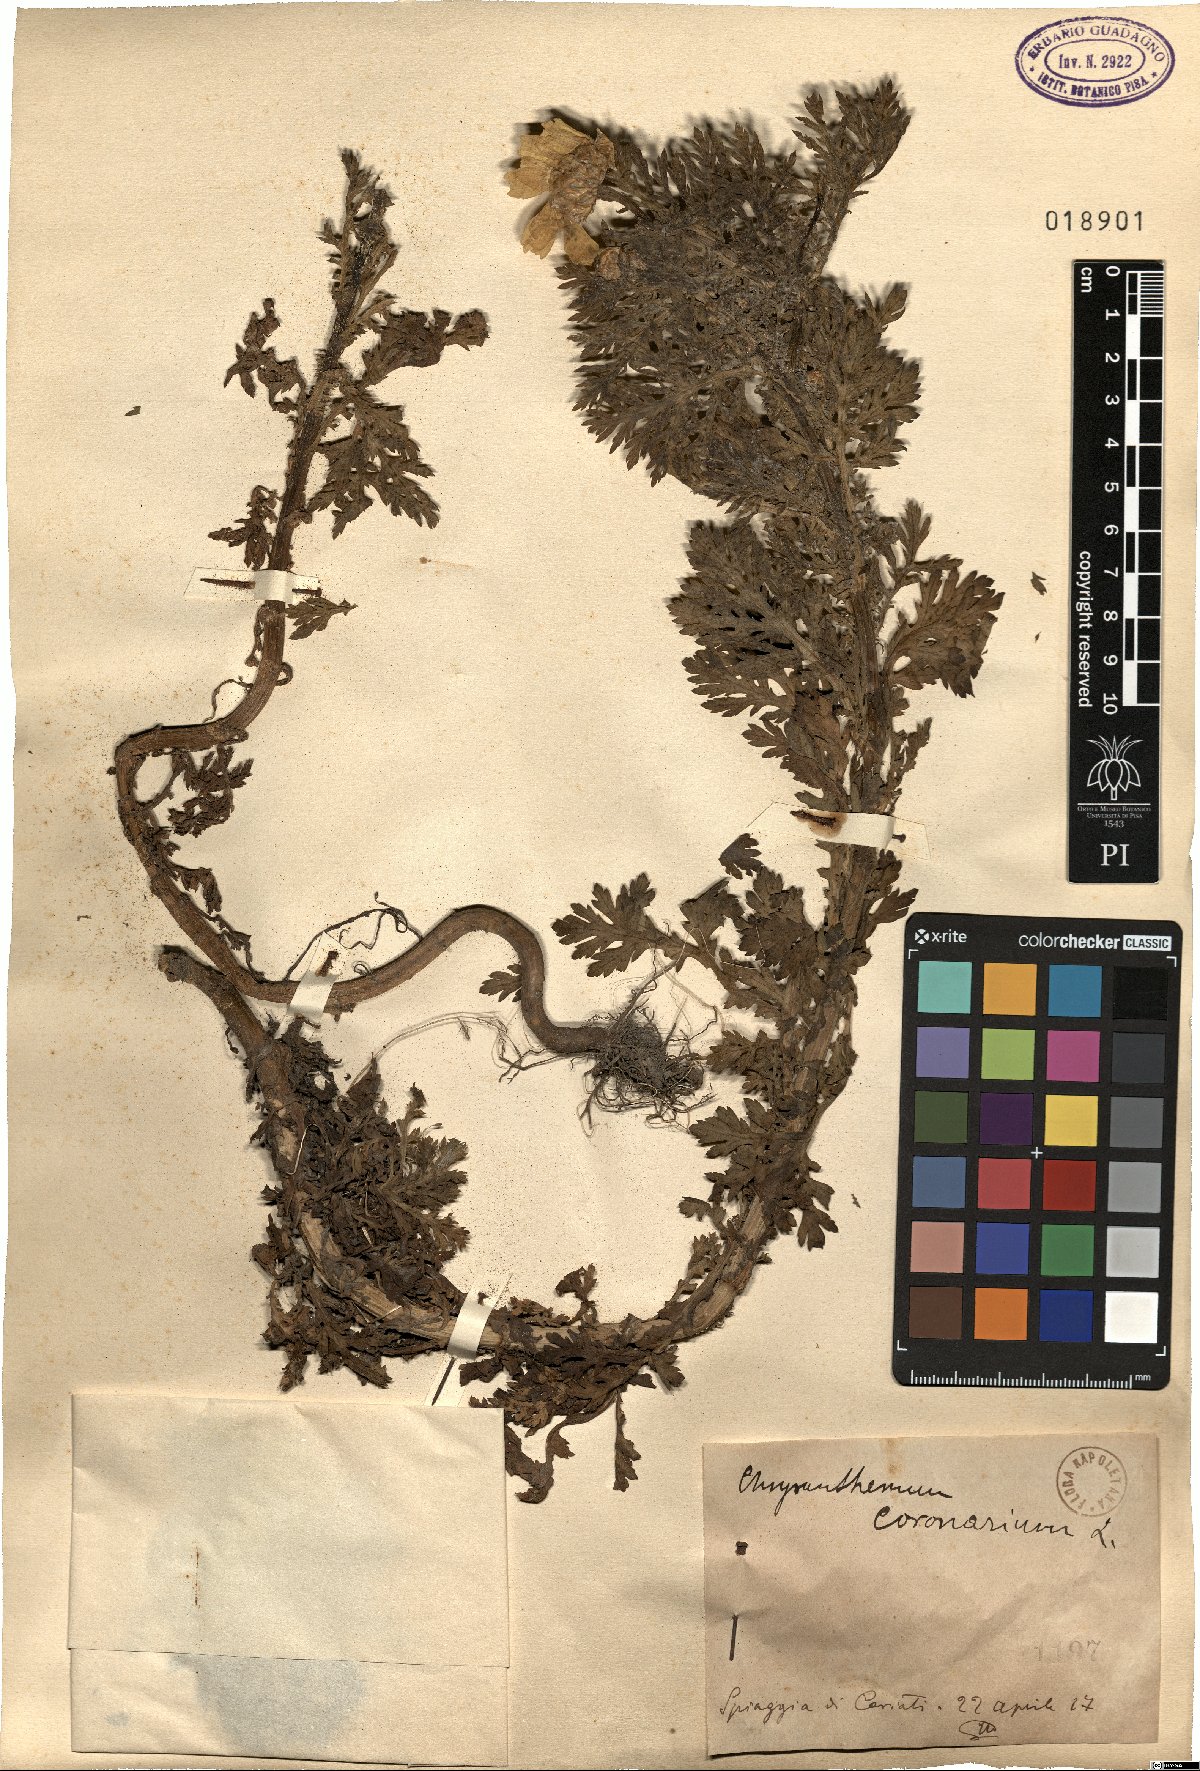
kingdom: Plantae
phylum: Tracheophyta
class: Magnoliopsida
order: Asterales
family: Asteraceae
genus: Glebionis
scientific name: Glebionis coronaria
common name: Crowndaisy
